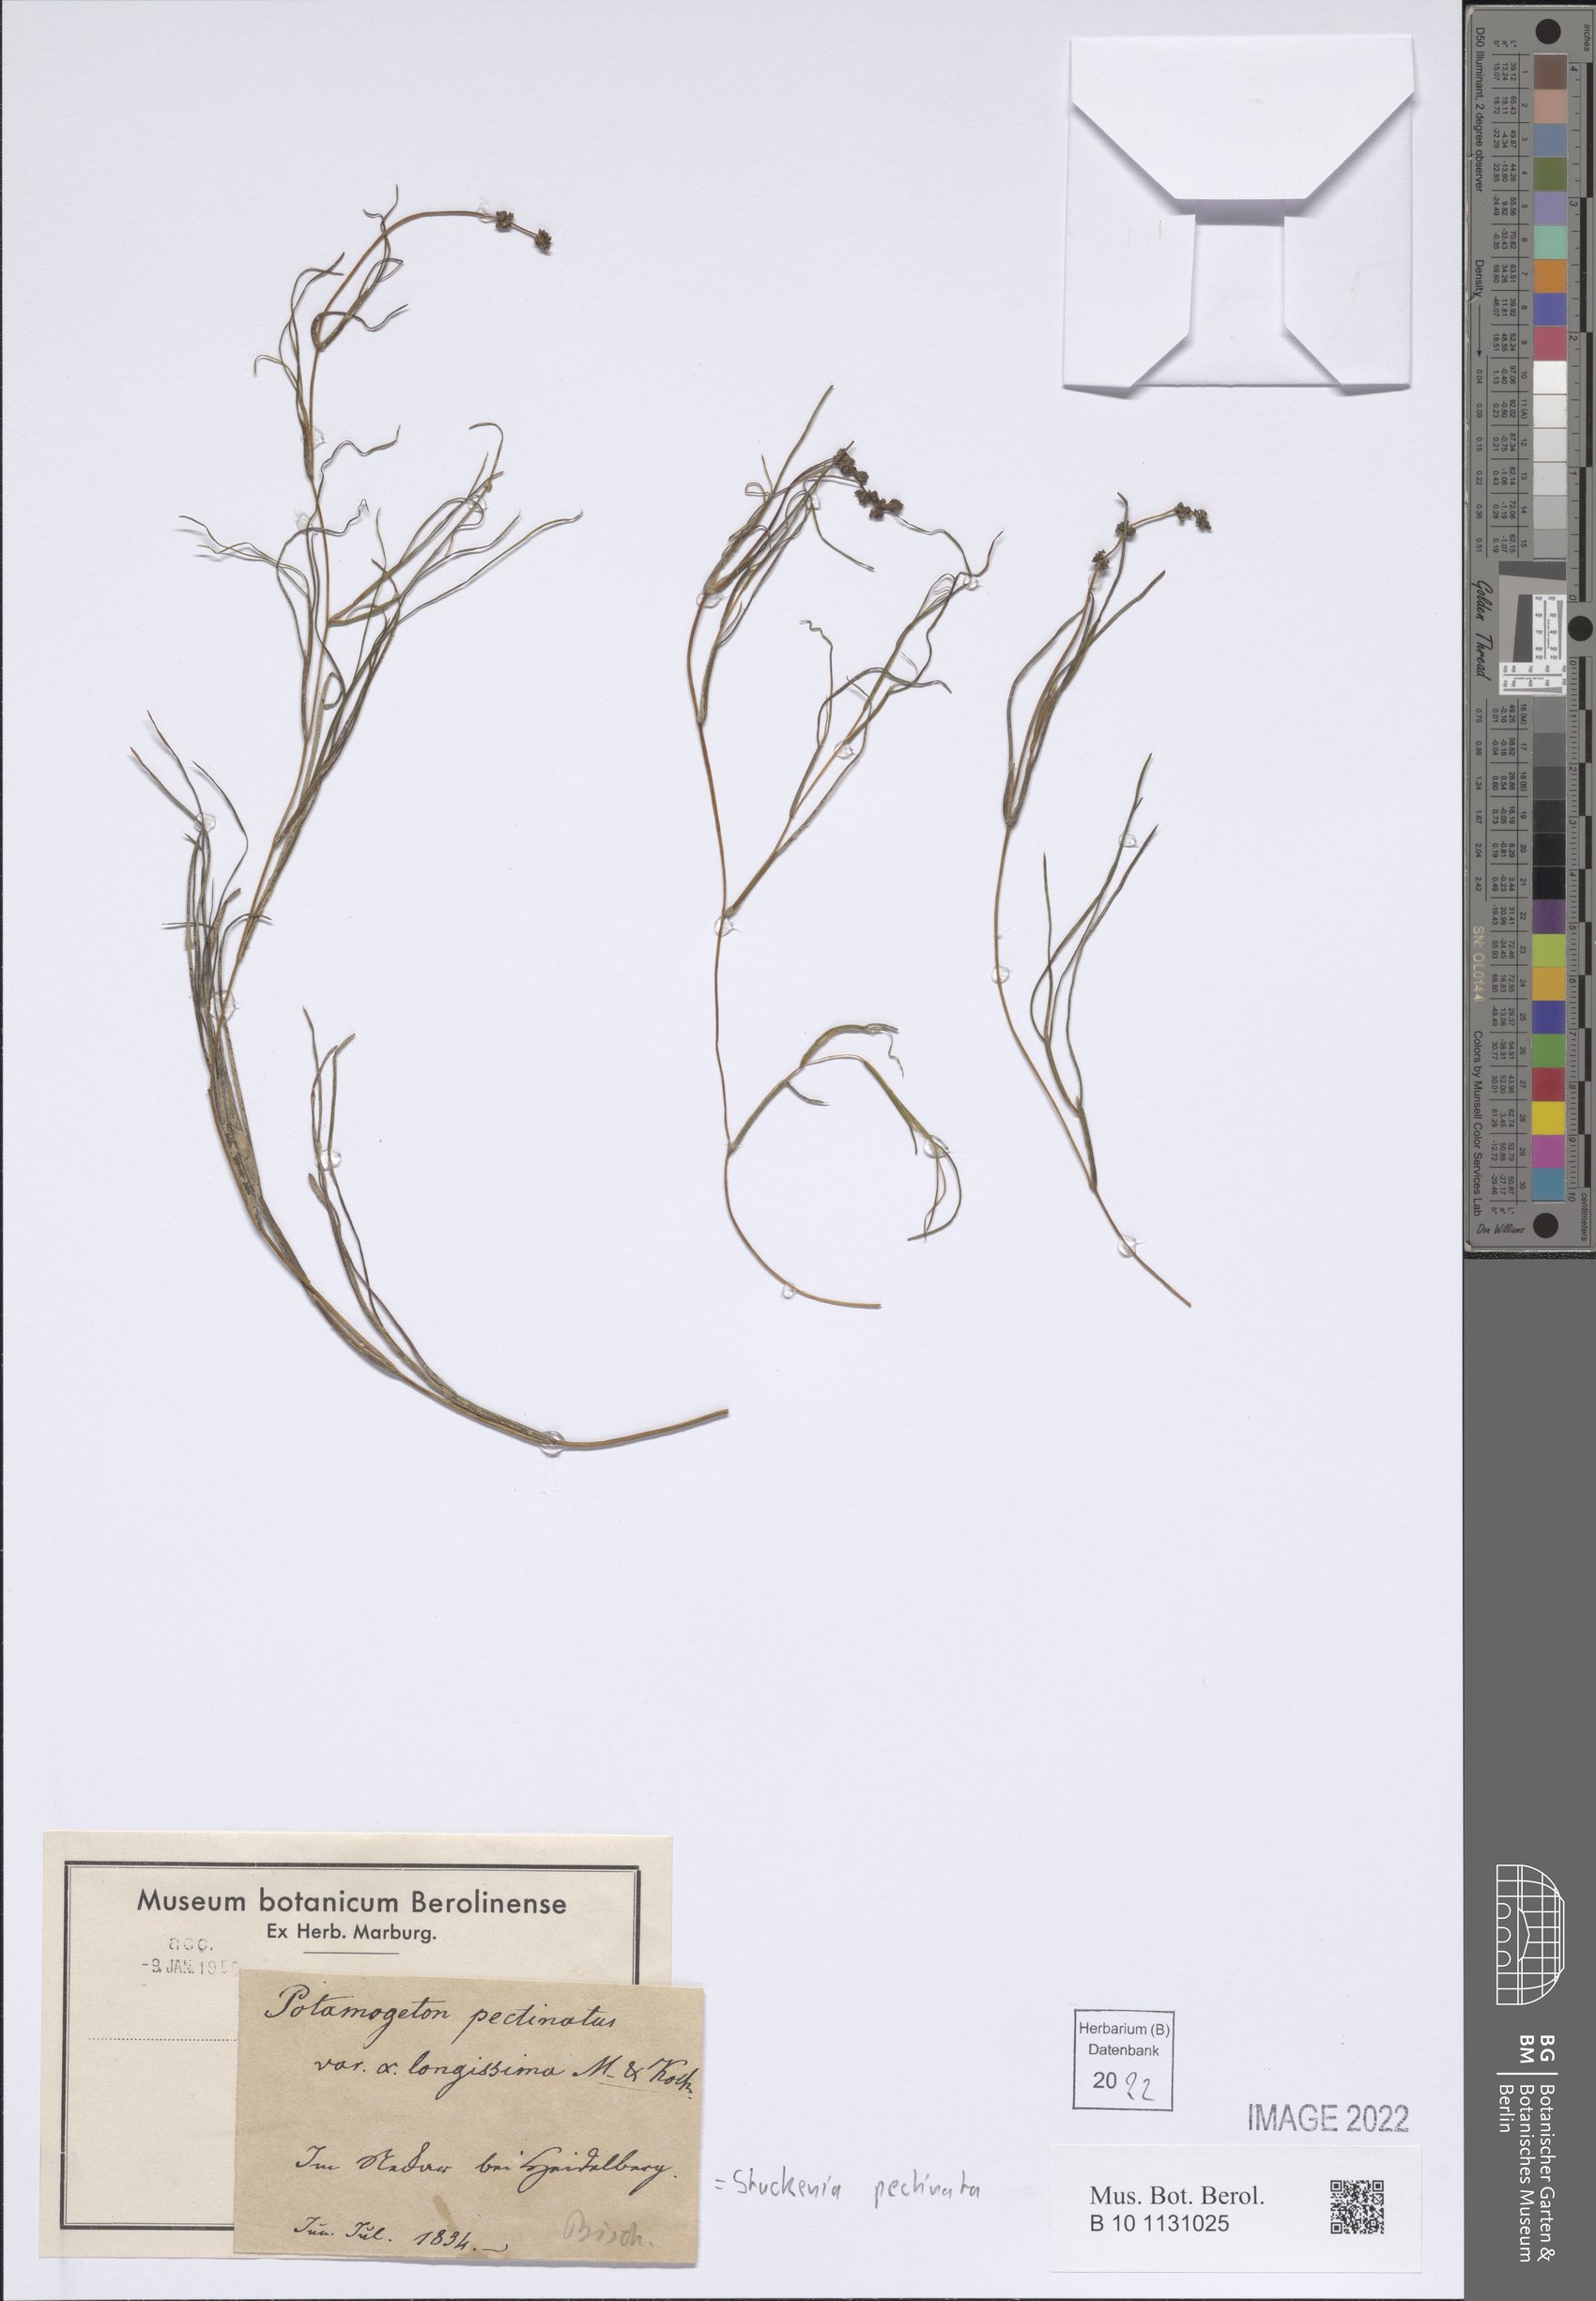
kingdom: Plantae
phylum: Tracheophyta
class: Liliopsida
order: Alismatales
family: Potamogetonaceae
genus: Stuckenia
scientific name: Stuckenia pectinata
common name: Sago pondweed
